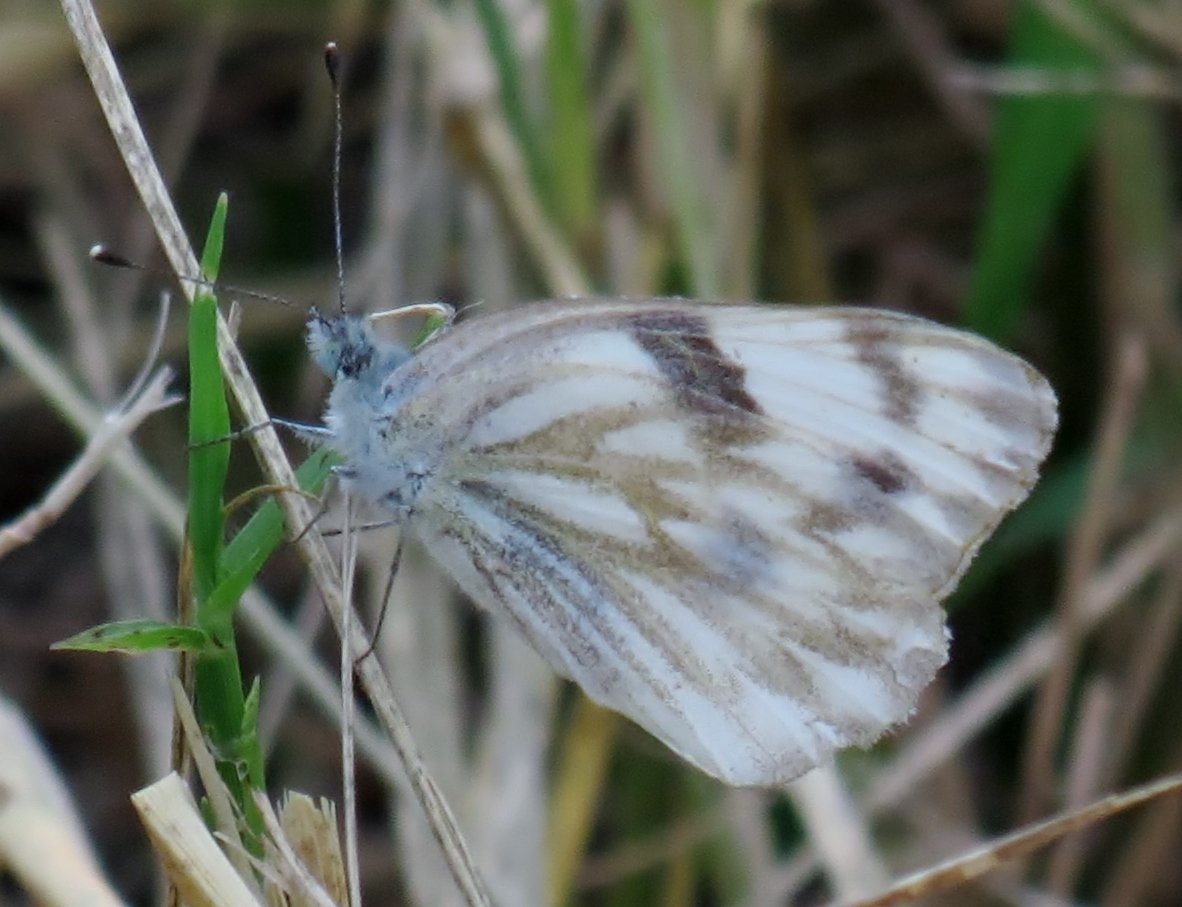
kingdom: Animalia
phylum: Arthropoda
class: Insecta
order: Lepidoptera
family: Hesperiidae
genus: Pyrgus
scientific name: Pyrgus communis
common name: White Checkered-Skipper
